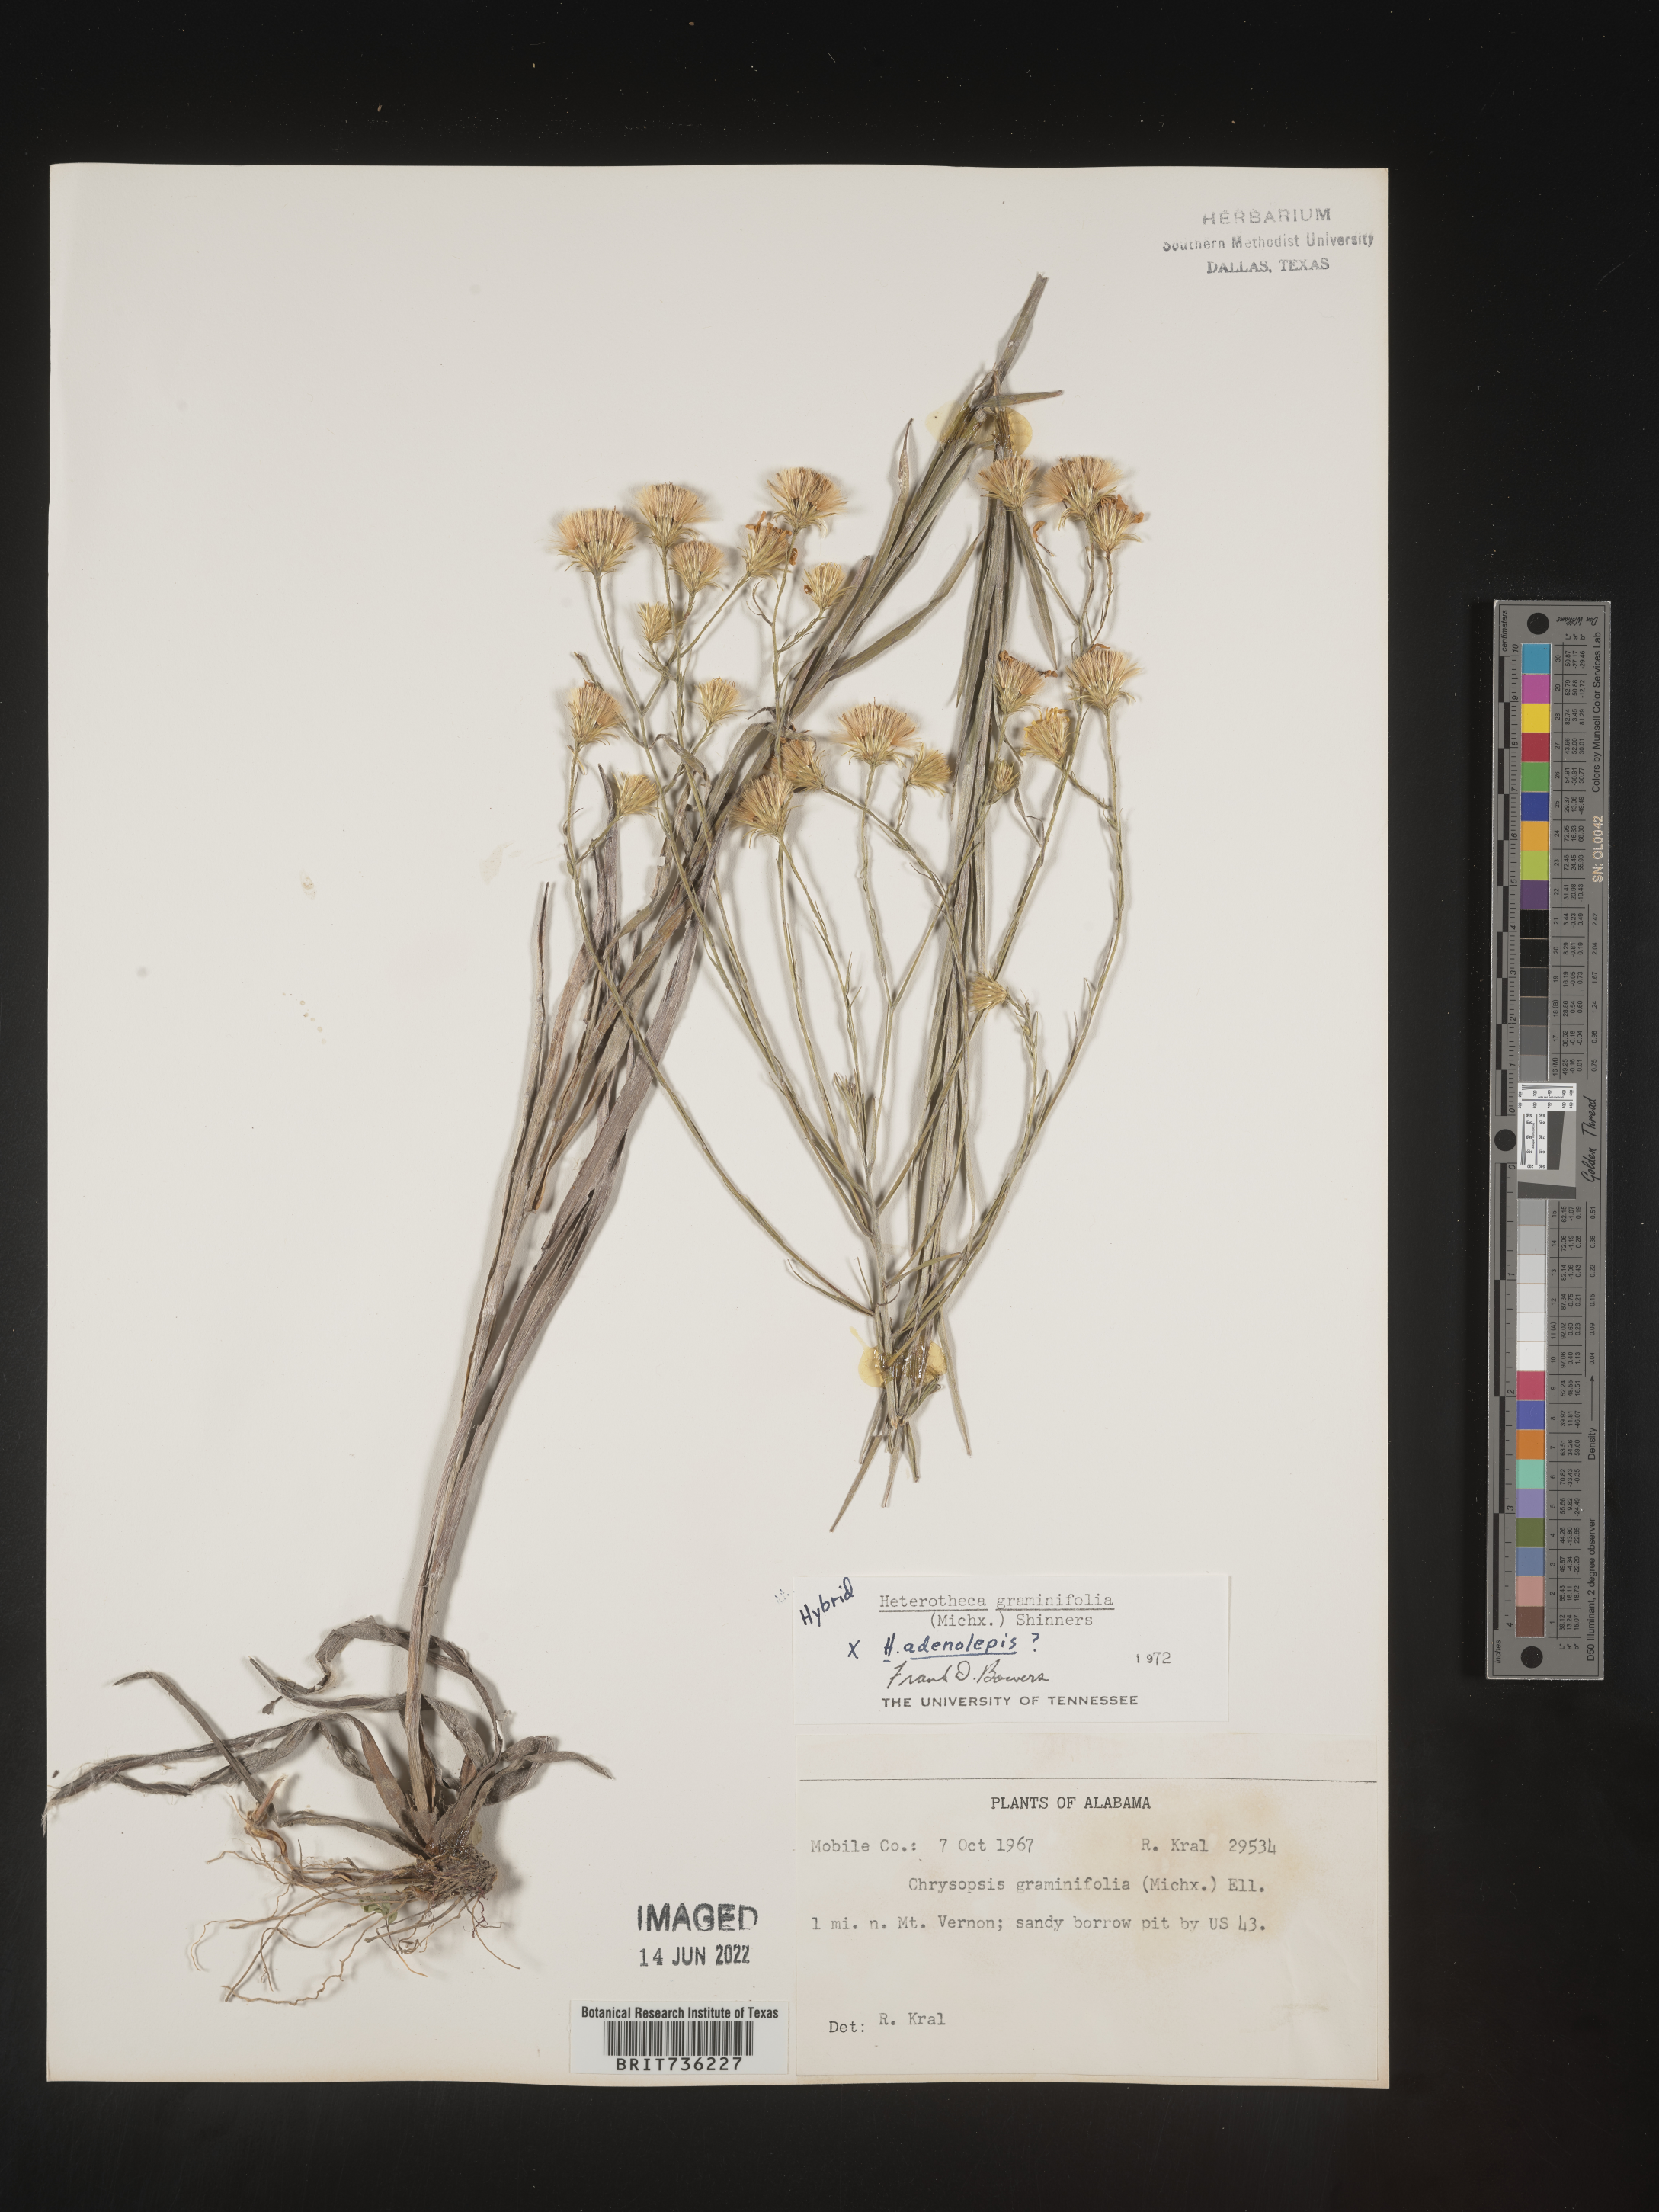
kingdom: Plantae
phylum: Tracheophyta
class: Magnoliopsida
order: Asterales
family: Asteraceae
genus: Pityopsis
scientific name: Pityopsis graminifolia
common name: Grass-leaf golden-aster
